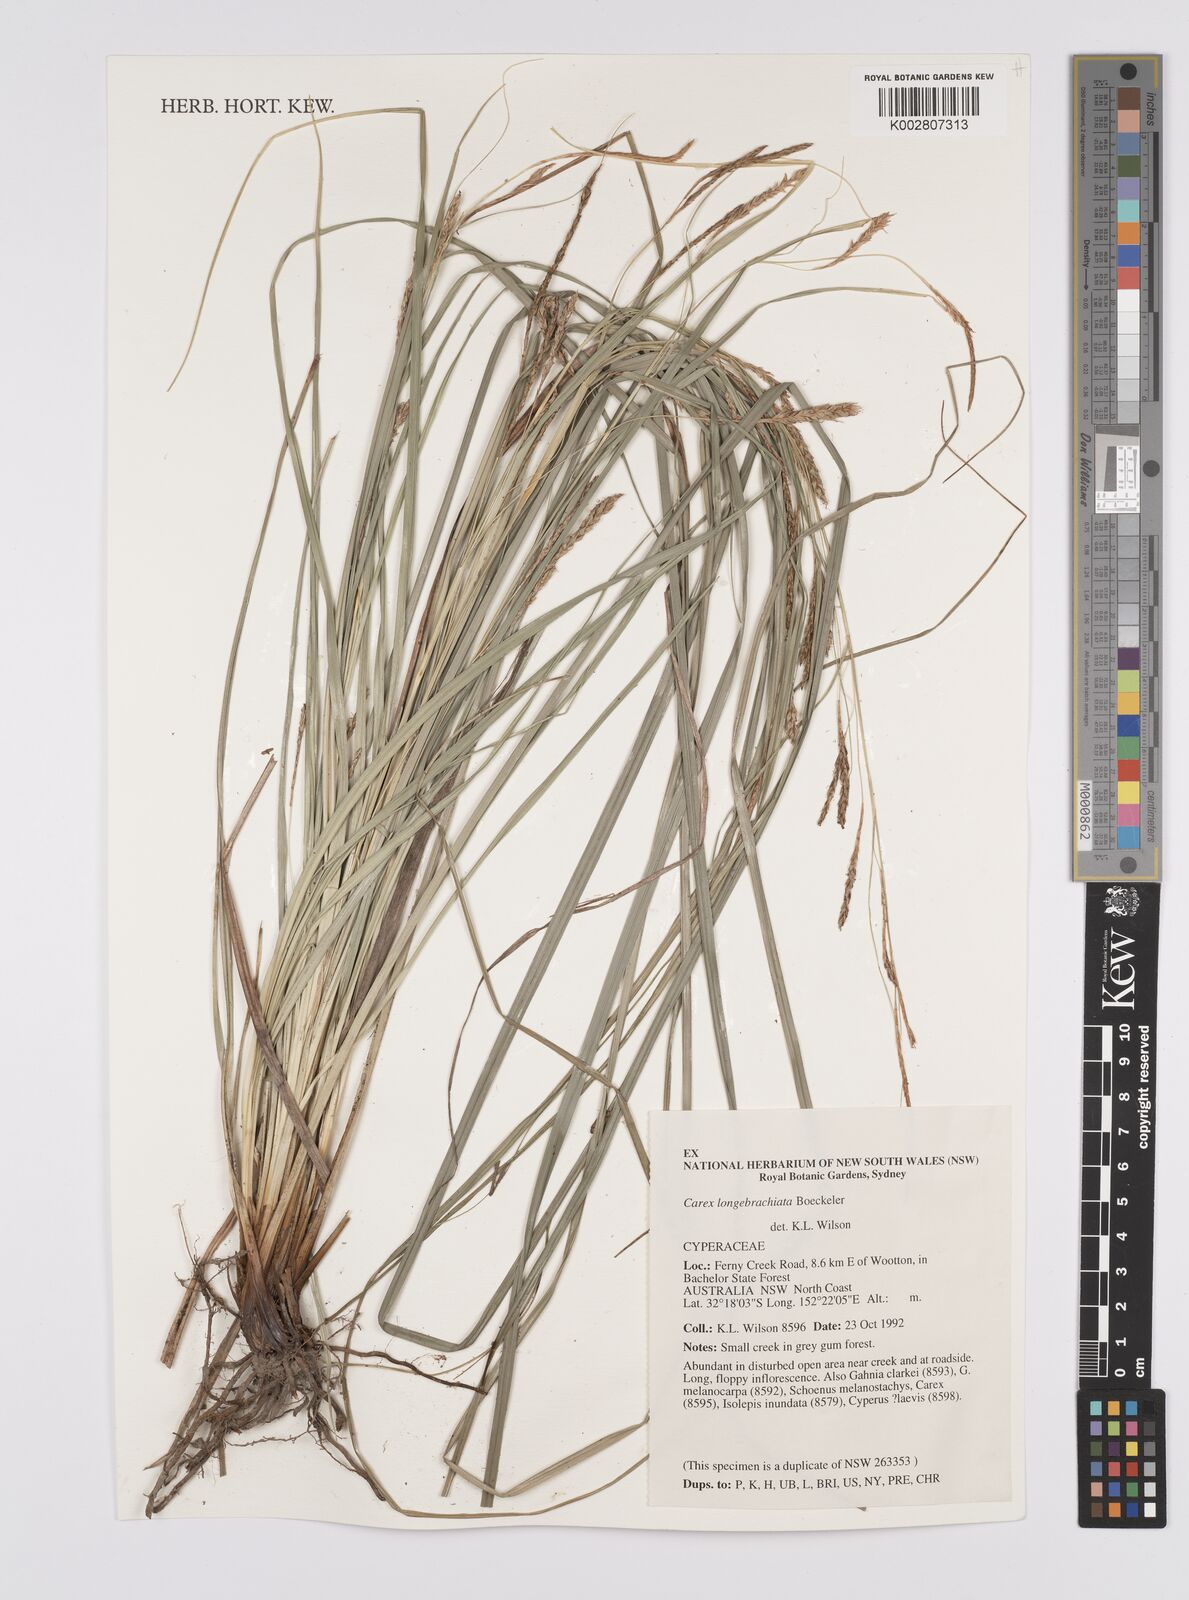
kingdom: Plantae
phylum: Tracheophyta
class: Liliopsida
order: Poales
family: Cyperaceae
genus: Carex
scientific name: Carex pseudocyperus
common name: Cyperus sedge
